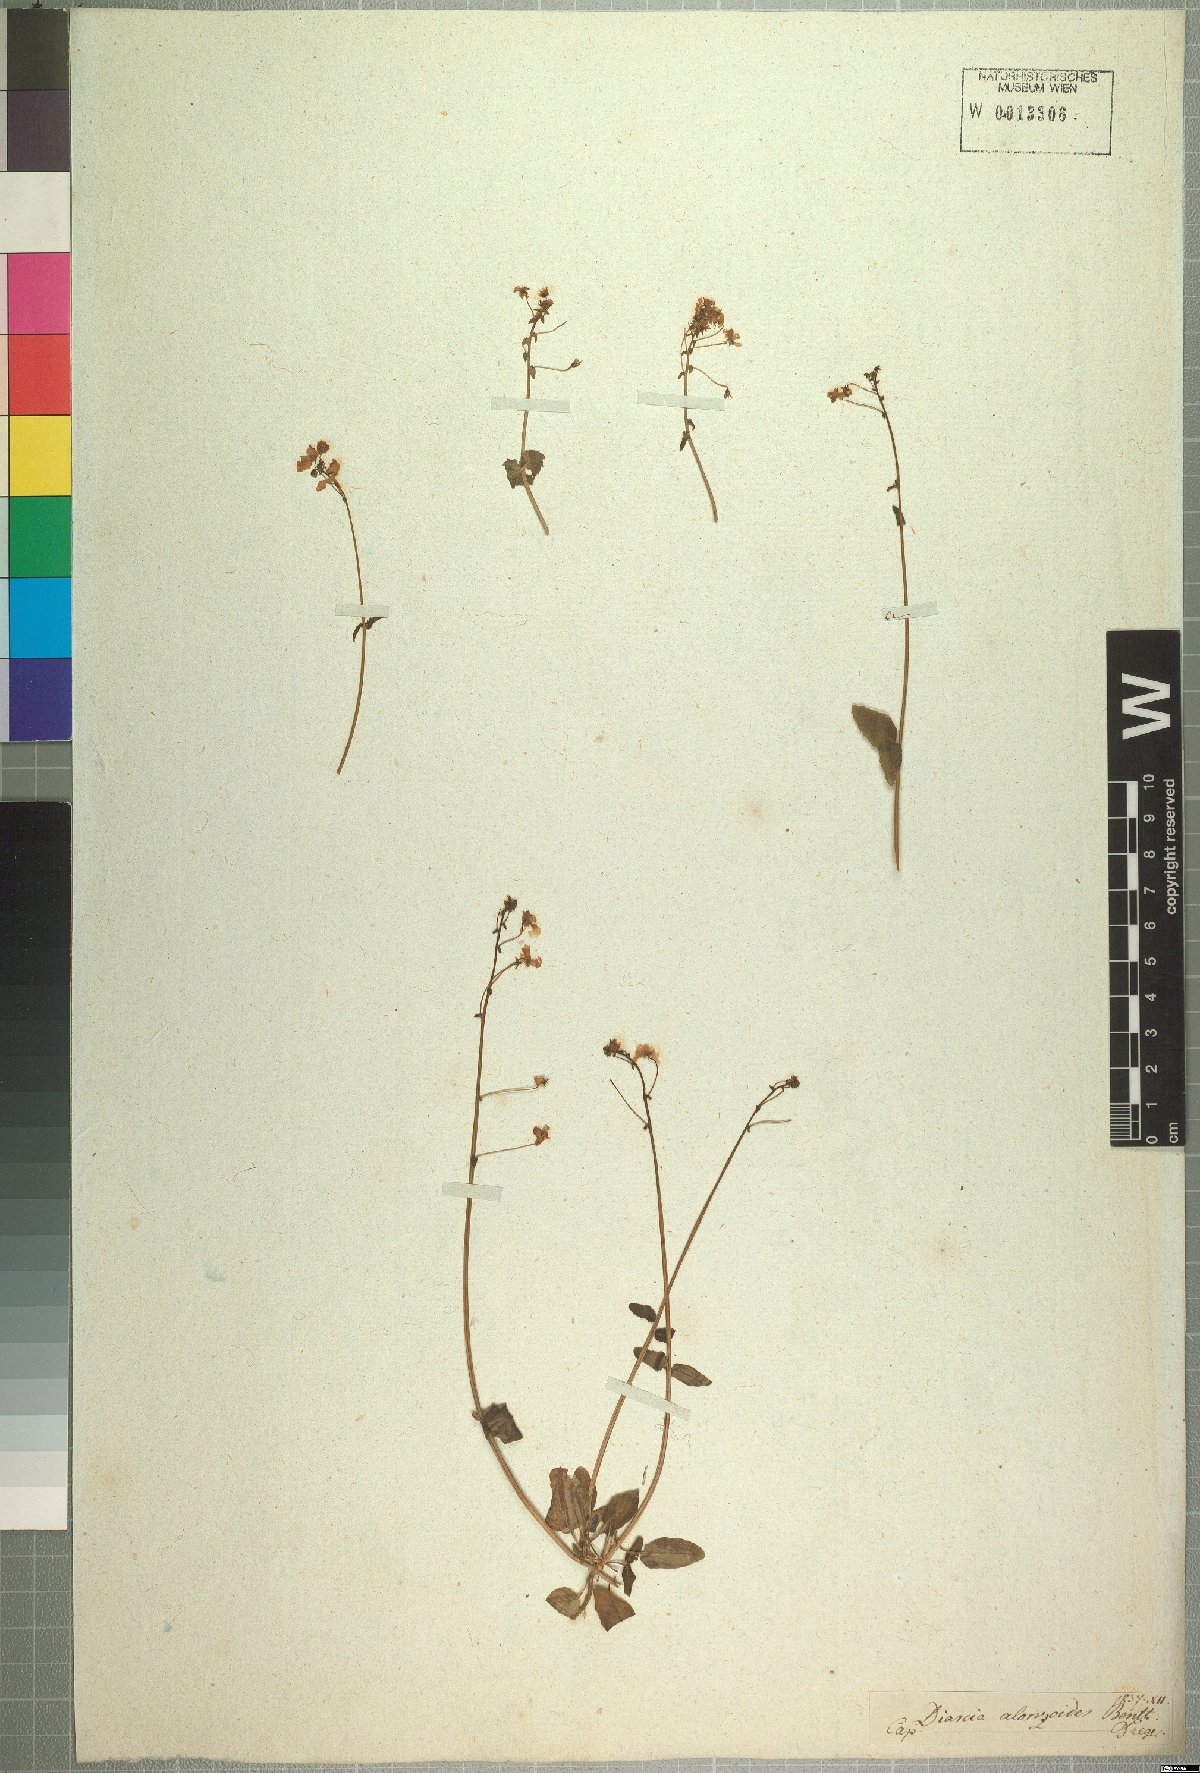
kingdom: Plantae
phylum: Tracheophyta
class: Magnoliopsida
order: Lamiales
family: Scrophulariaceae
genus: Diascia
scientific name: Diascia alonsooides
